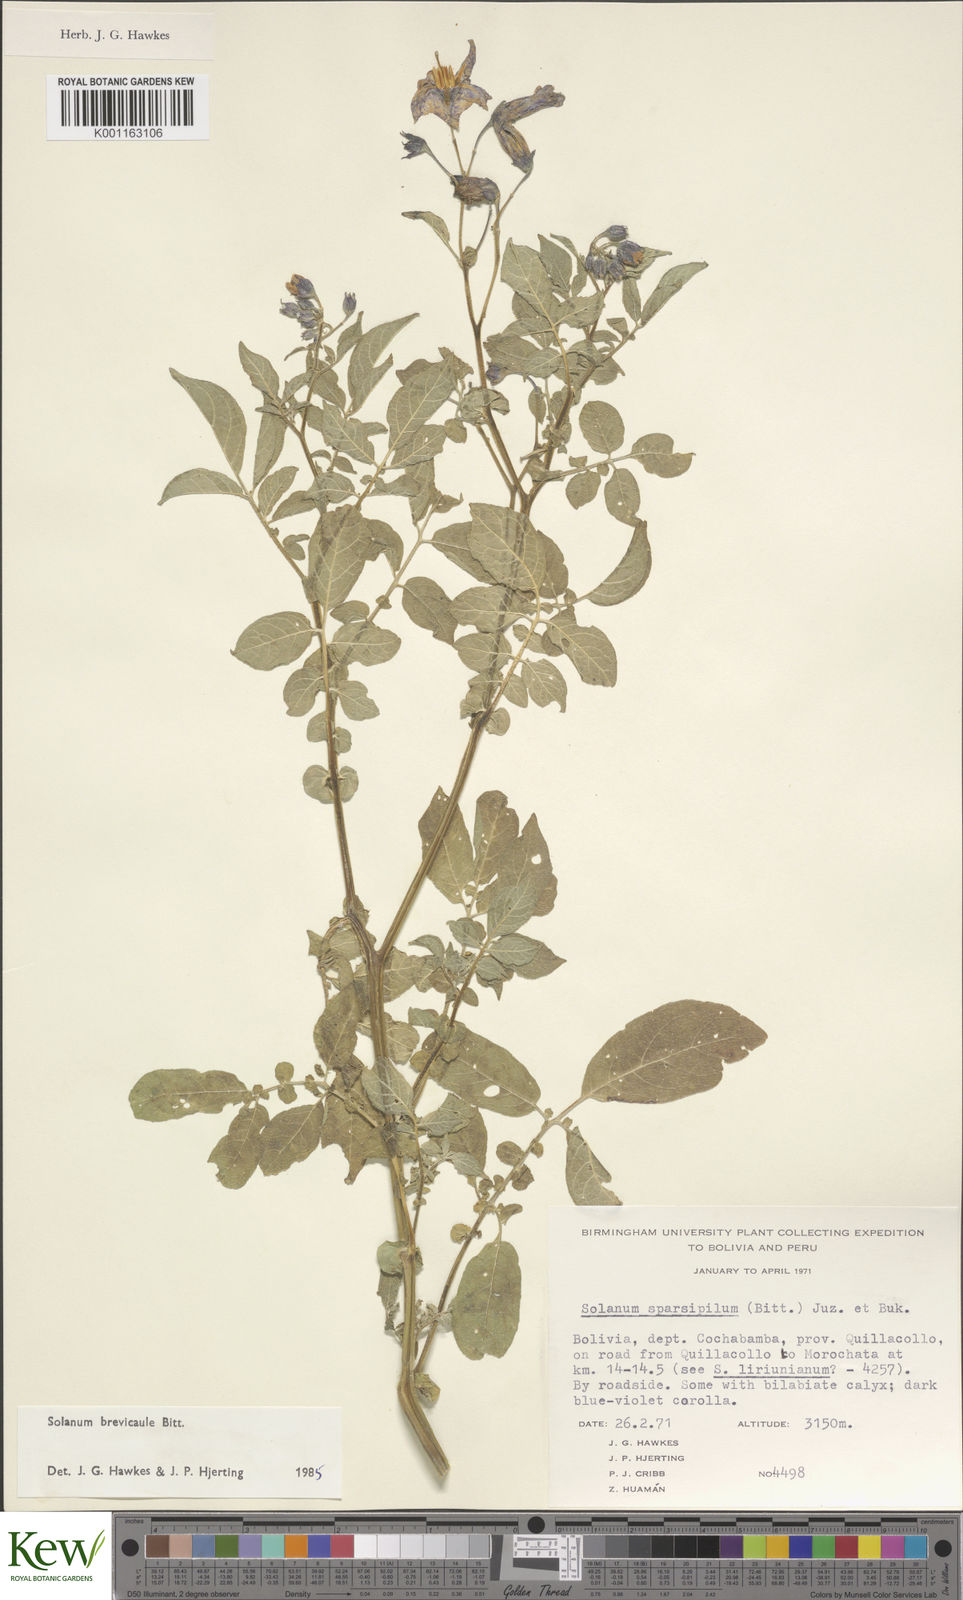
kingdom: Plantae
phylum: Tracheophyta
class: Magnoliopsida
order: Solanales
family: Solanaceae
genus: Solanum
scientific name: Solanum brevicaule
